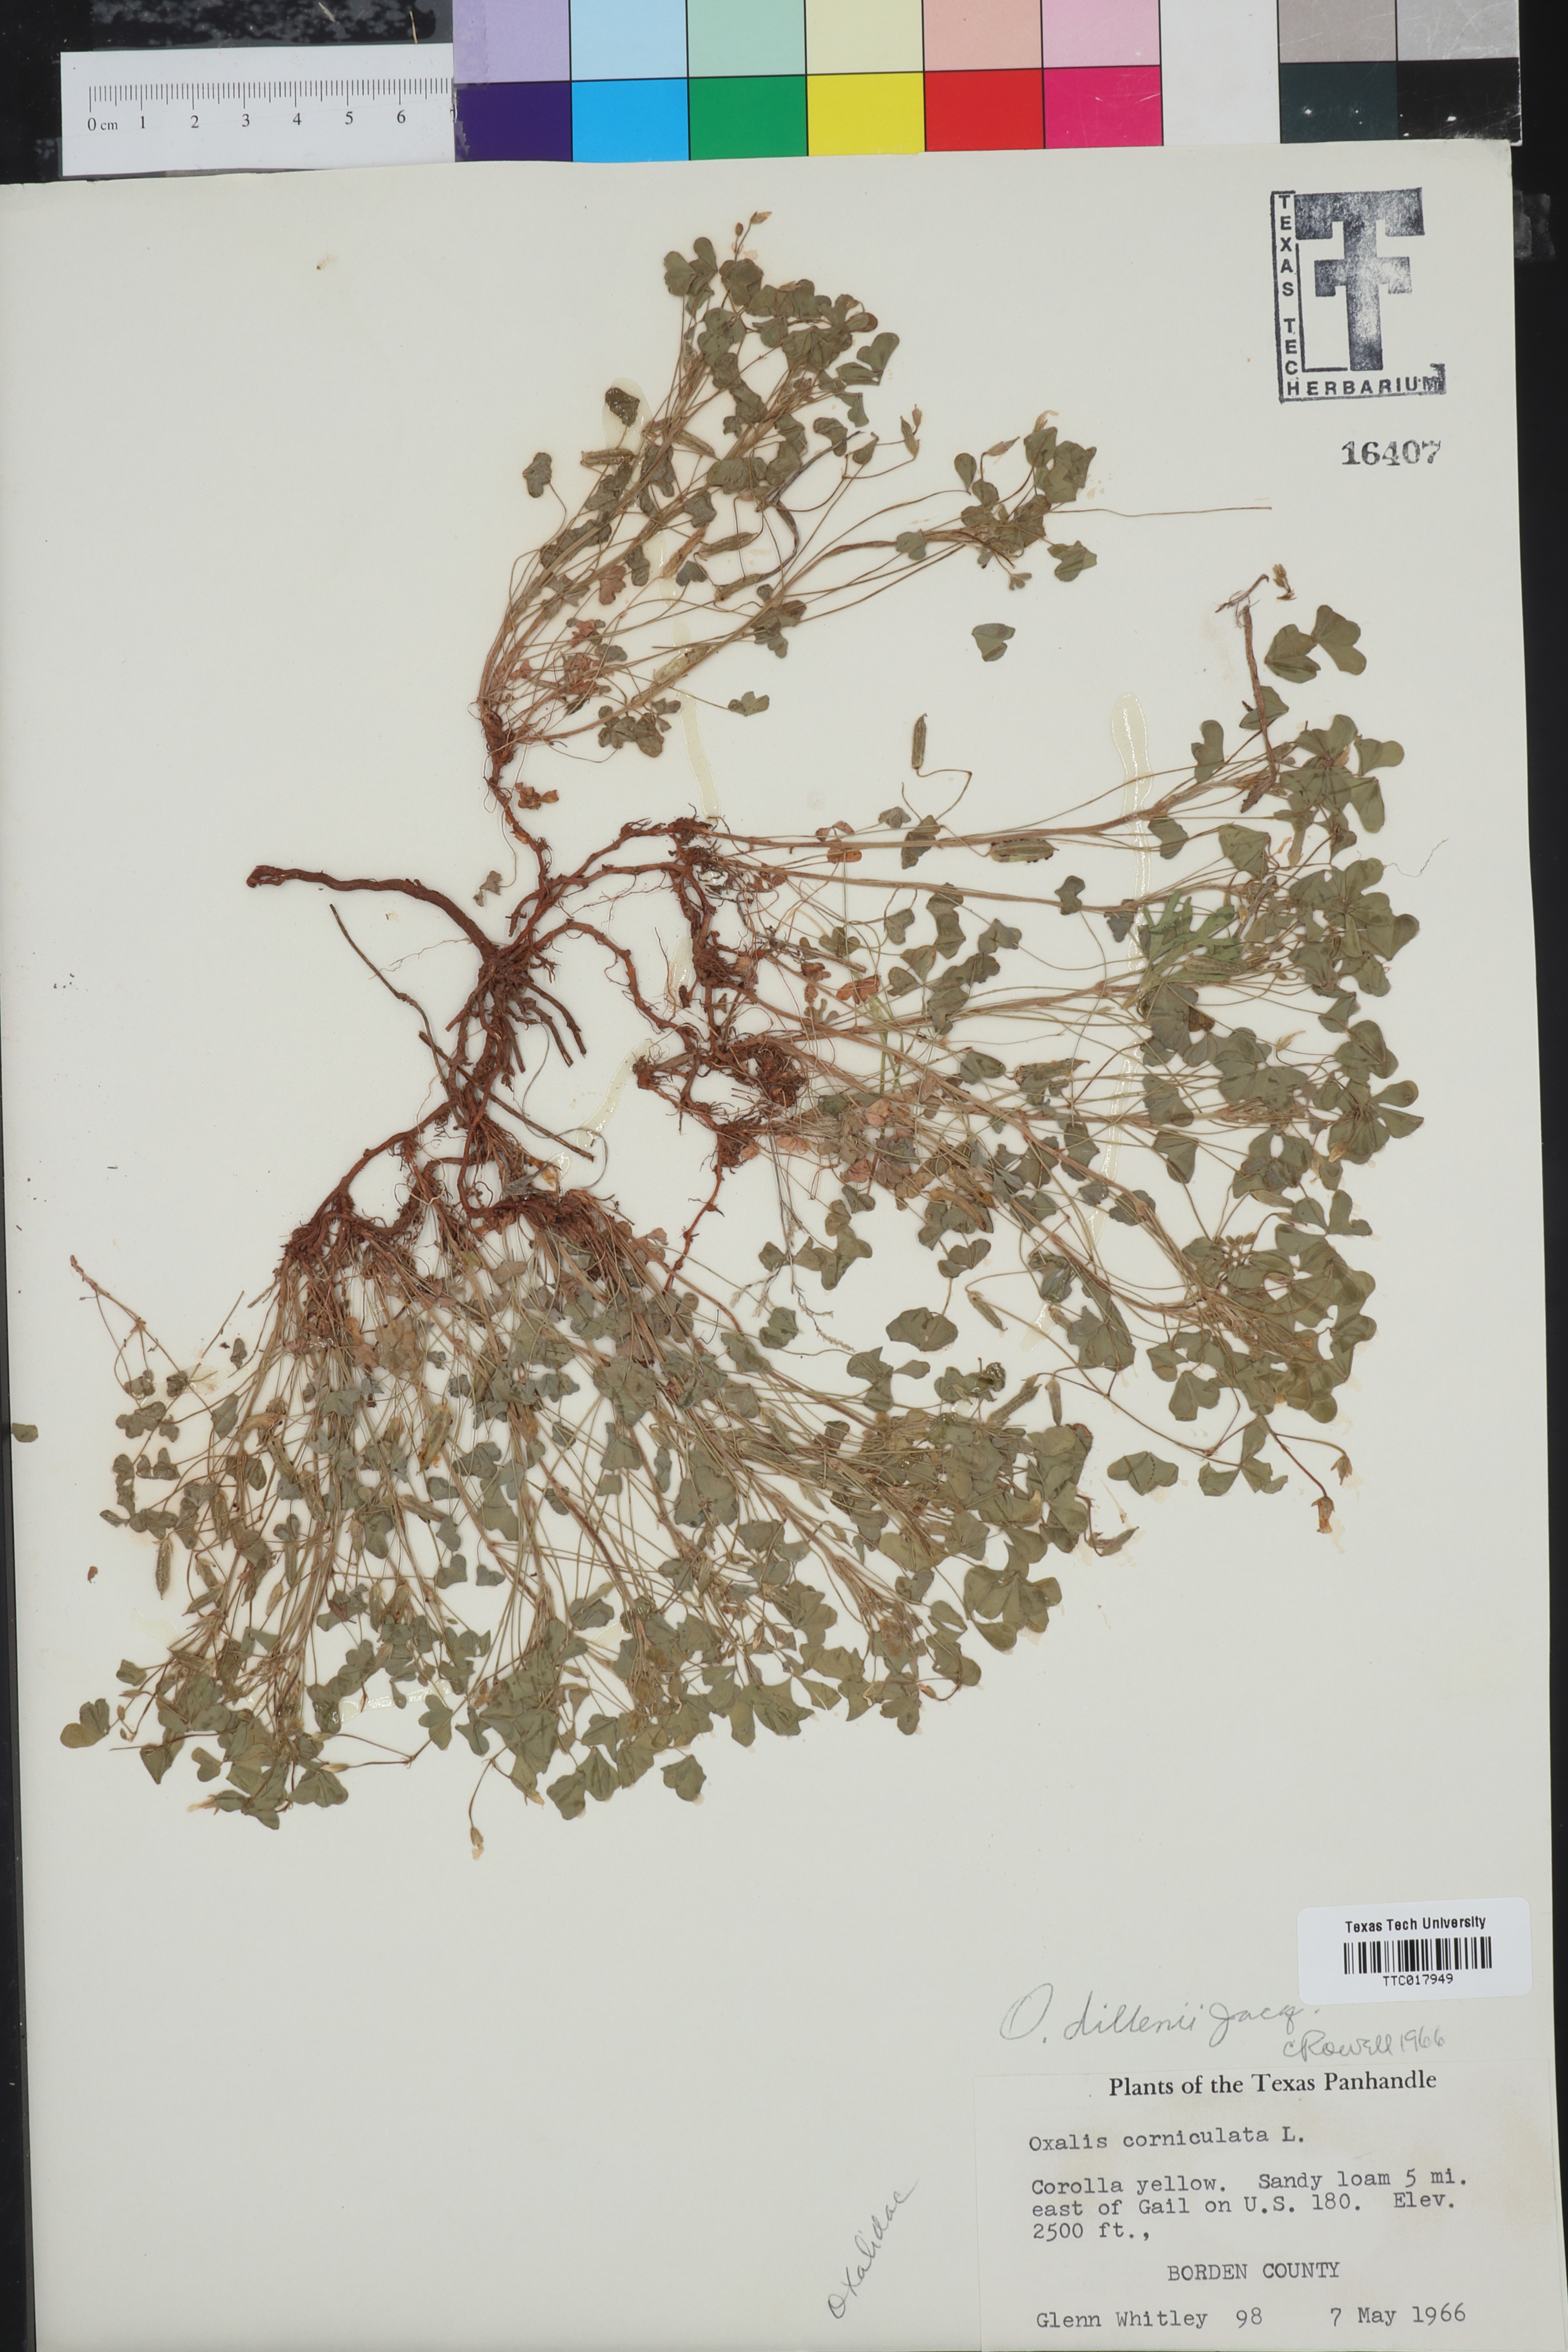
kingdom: Plantae
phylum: Tracheophyta
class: Magnoliopsida
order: Oxalidales
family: Oxalidaceae
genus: Oxalis
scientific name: Oxalis dillenii
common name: Sussex yellow-sorrel
